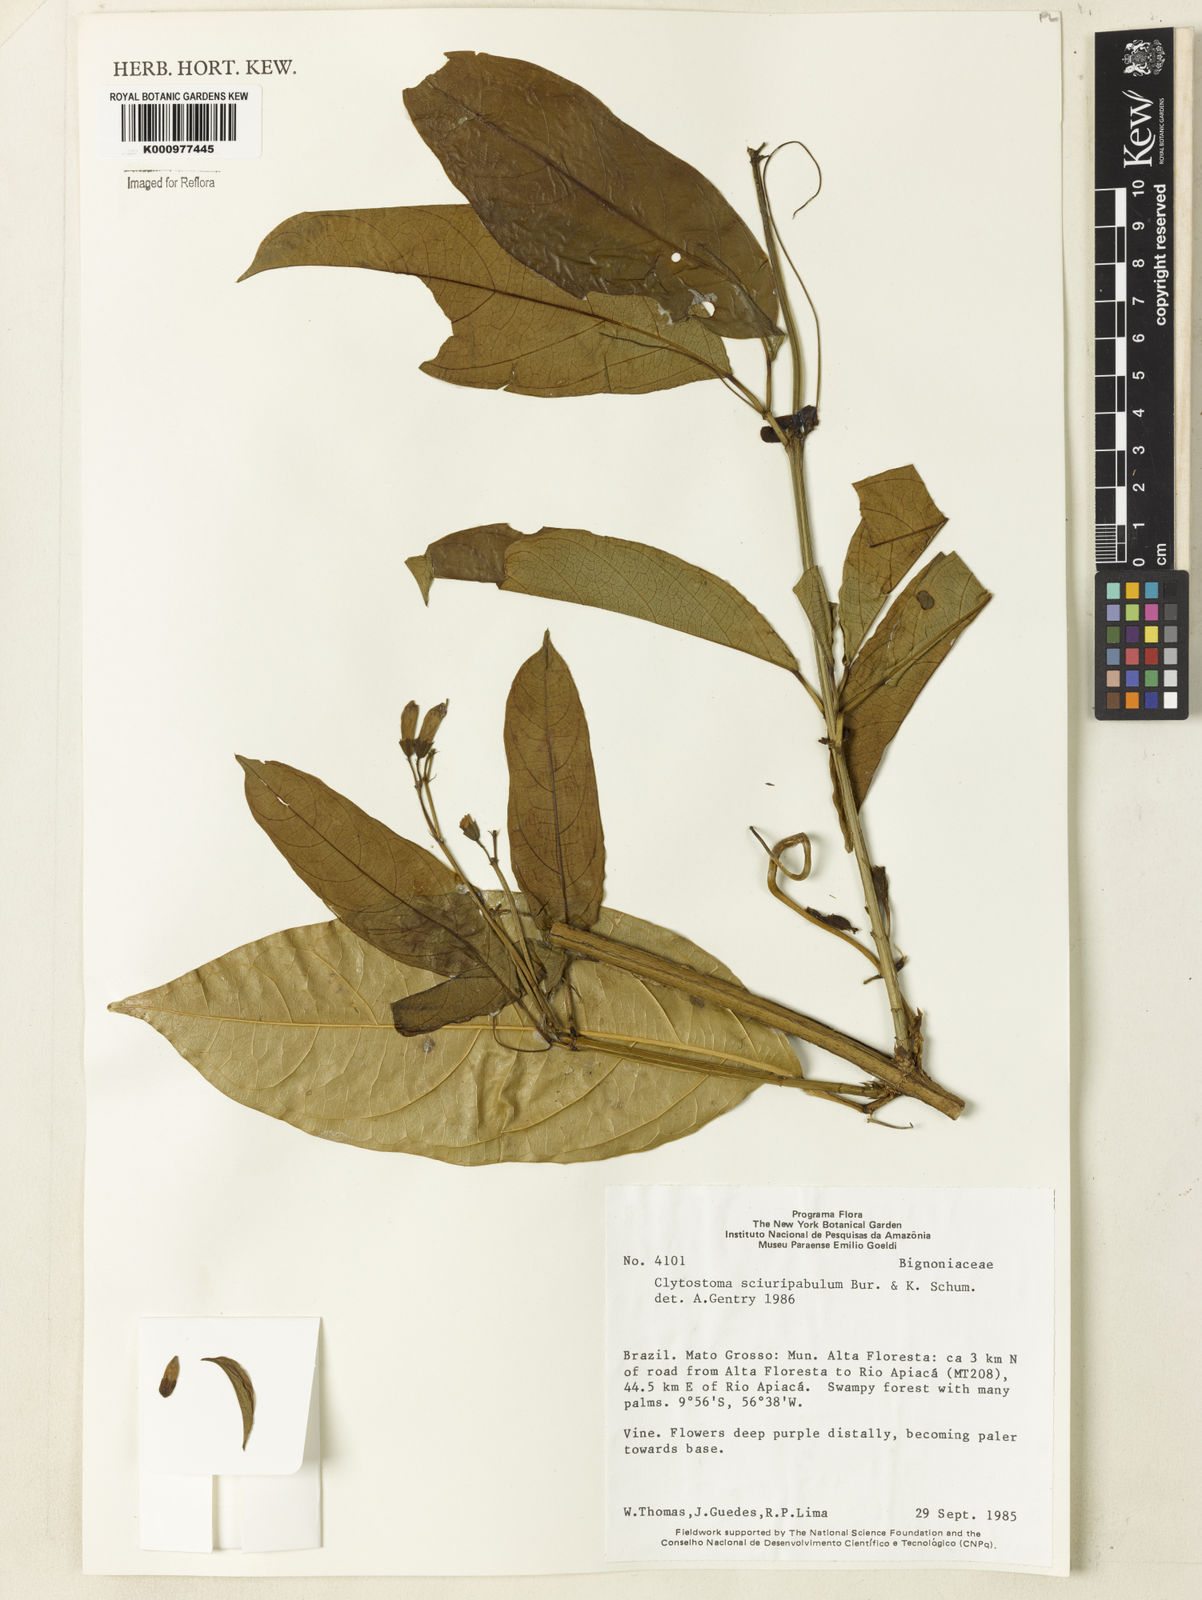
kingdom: Plantae
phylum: Tracheophyta
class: Magnoliopsida
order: Lamiales
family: Bignoniaceae
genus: Bignonia
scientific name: Bignonia
